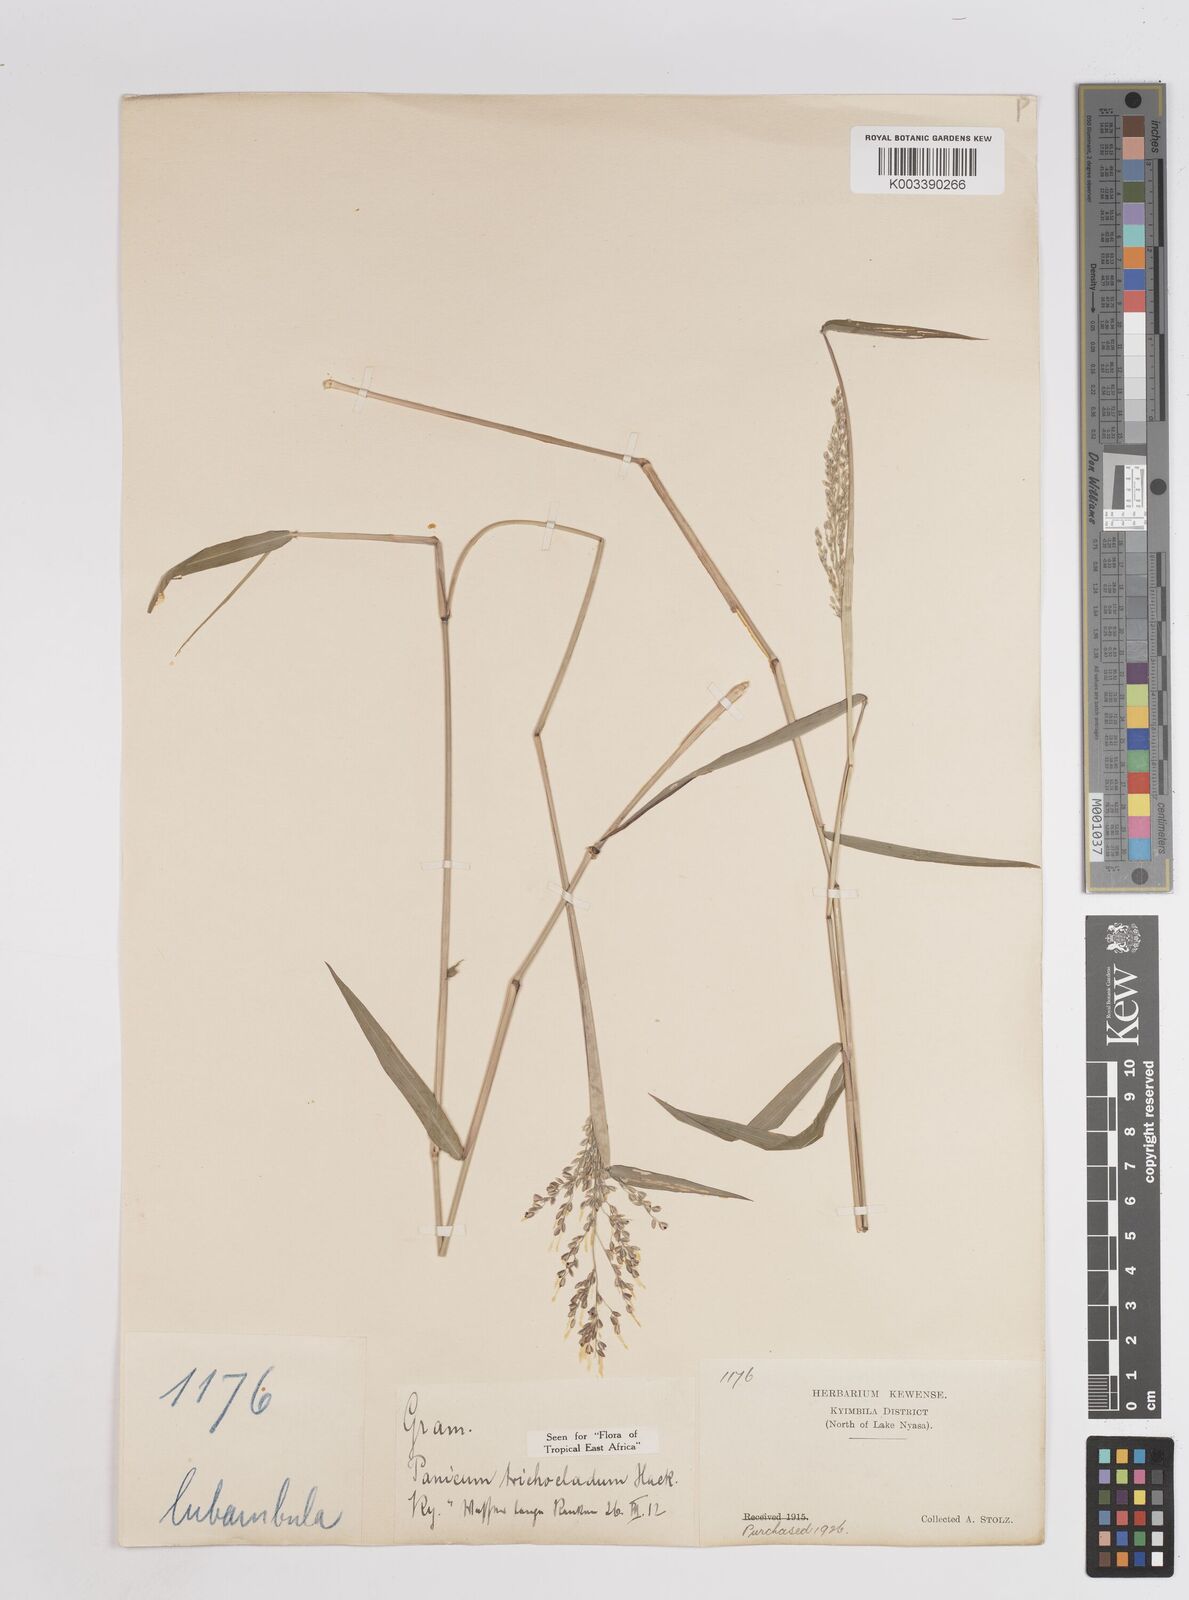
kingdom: Plantae
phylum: Tracheophyta
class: Liliopsida
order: Poales
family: Poaceae
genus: Panicum
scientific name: Panicum trichocladum
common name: Donkey grass
